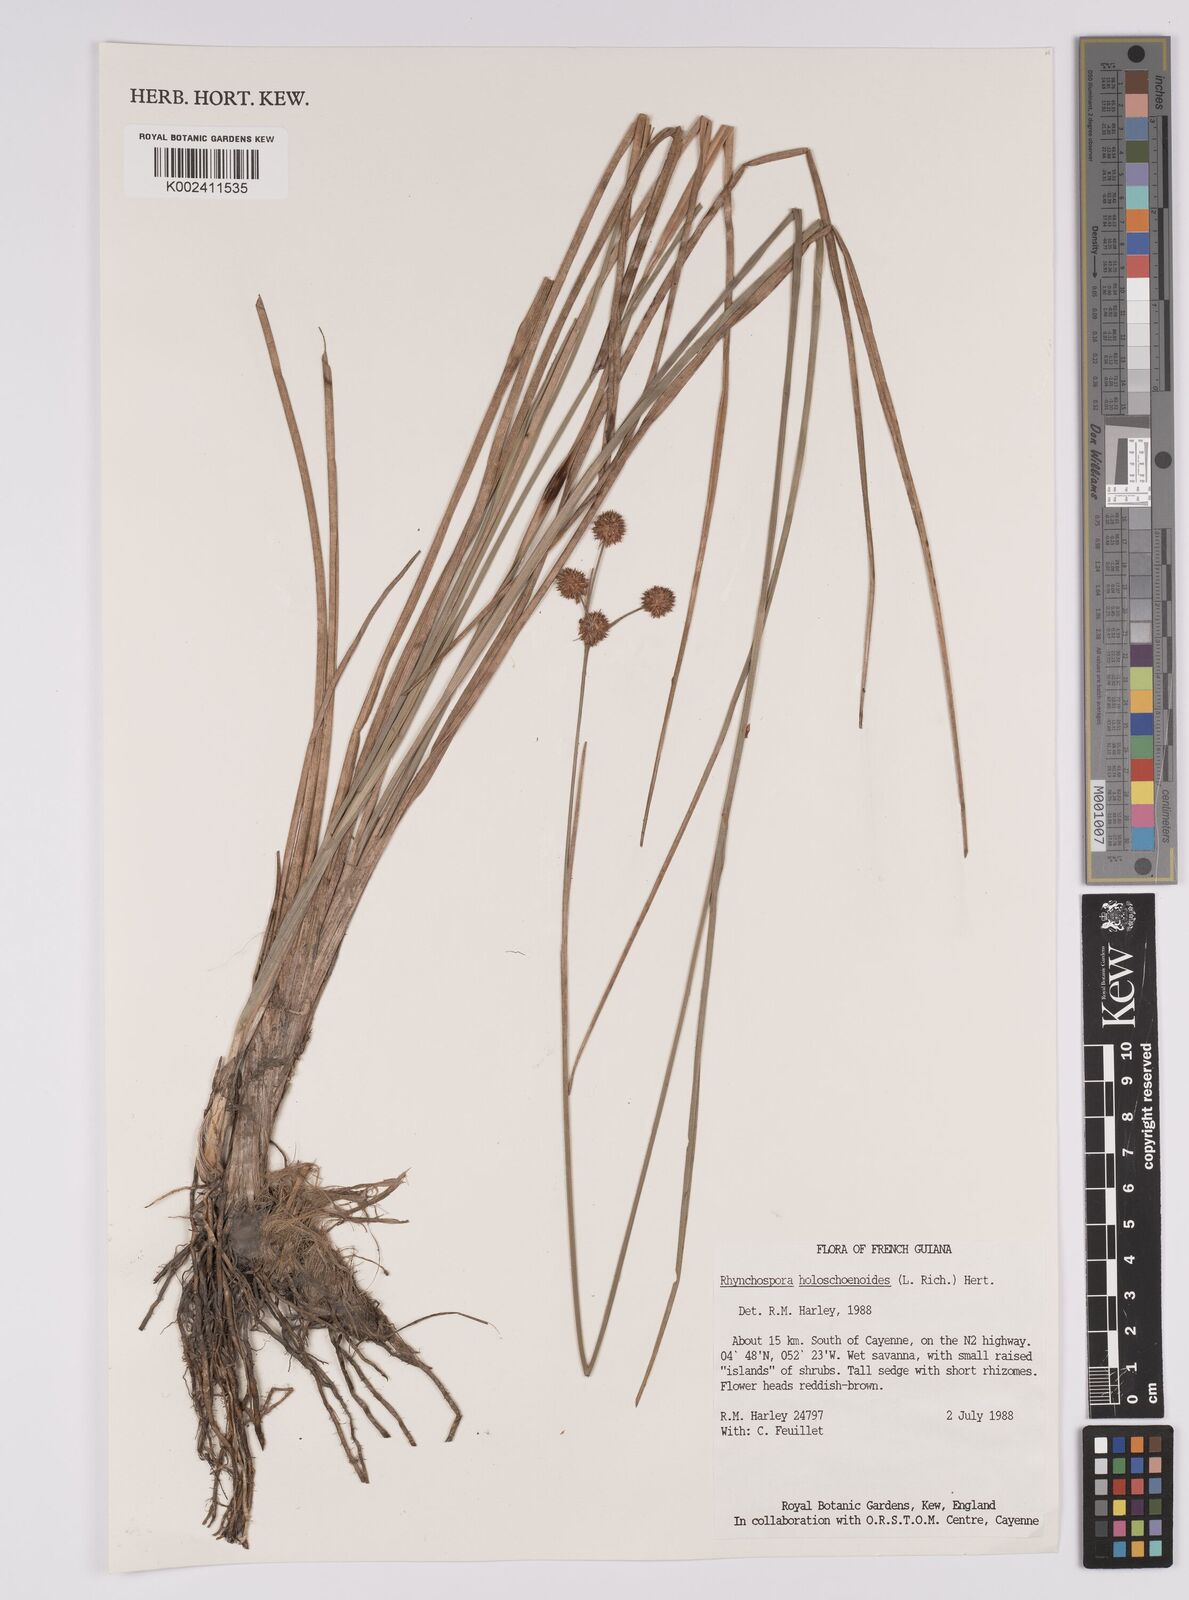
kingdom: Plantae
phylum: Tracheophyta
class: Liliopsida
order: Poales
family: Cyperaceae
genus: Rhynchospora
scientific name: Rhynchospora holoschoenoides
